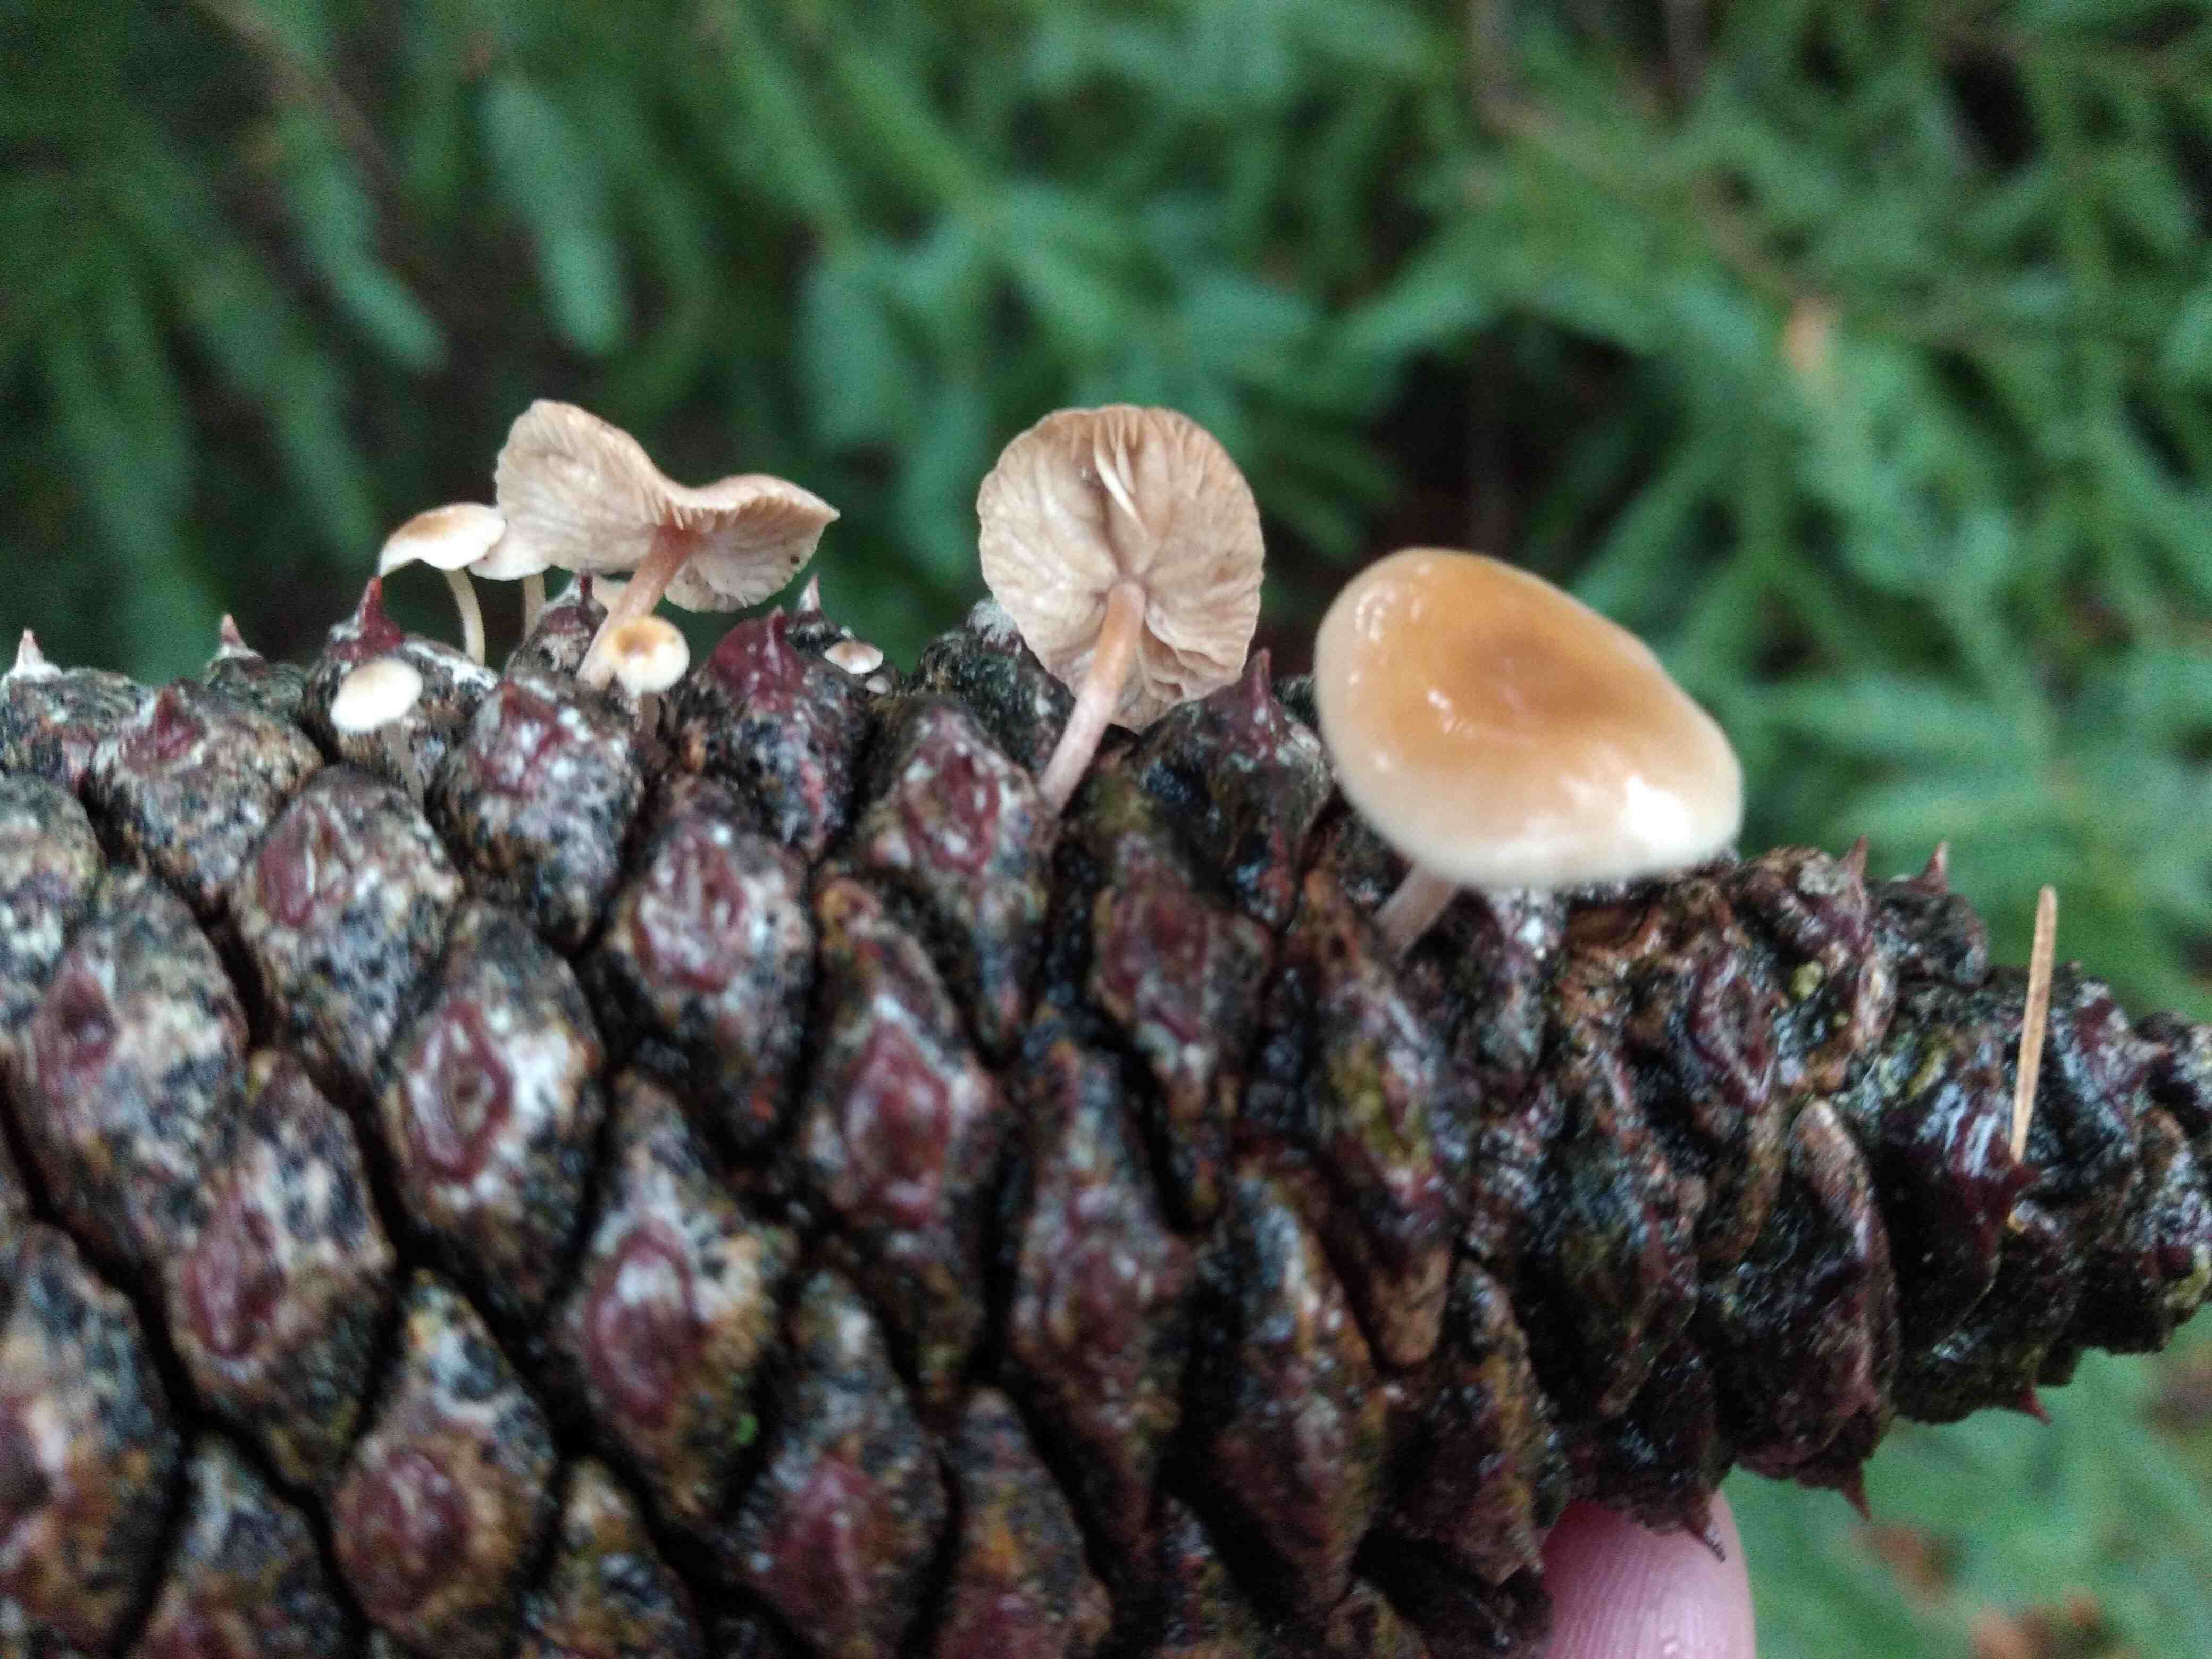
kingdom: Fungi
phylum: Basidiomycota
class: Agaricomycetes
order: Agaricales
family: Marasmiaceae
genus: Baeospora
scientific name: Baeospora myosura
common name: koglebruskhat
